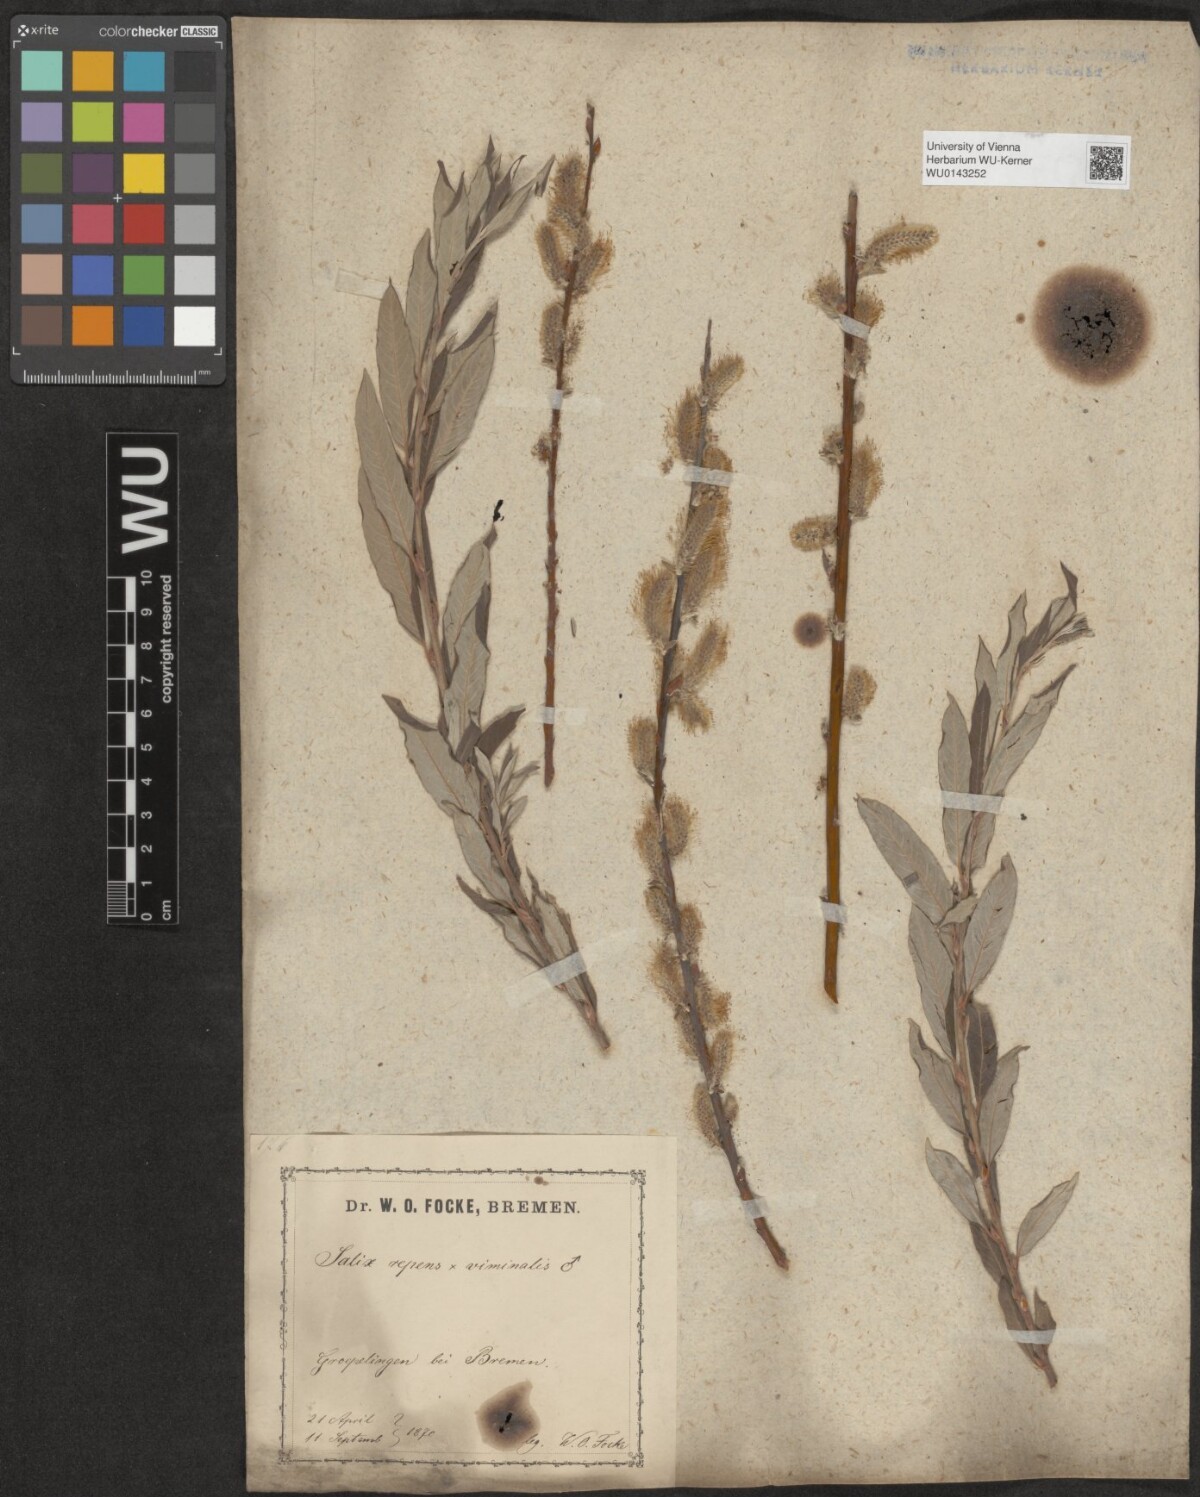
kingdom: Plantae
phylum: Tracheophyta
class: Magnoliopsida
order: Malpighiales
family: Salicaceae
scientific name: Salicaceae
